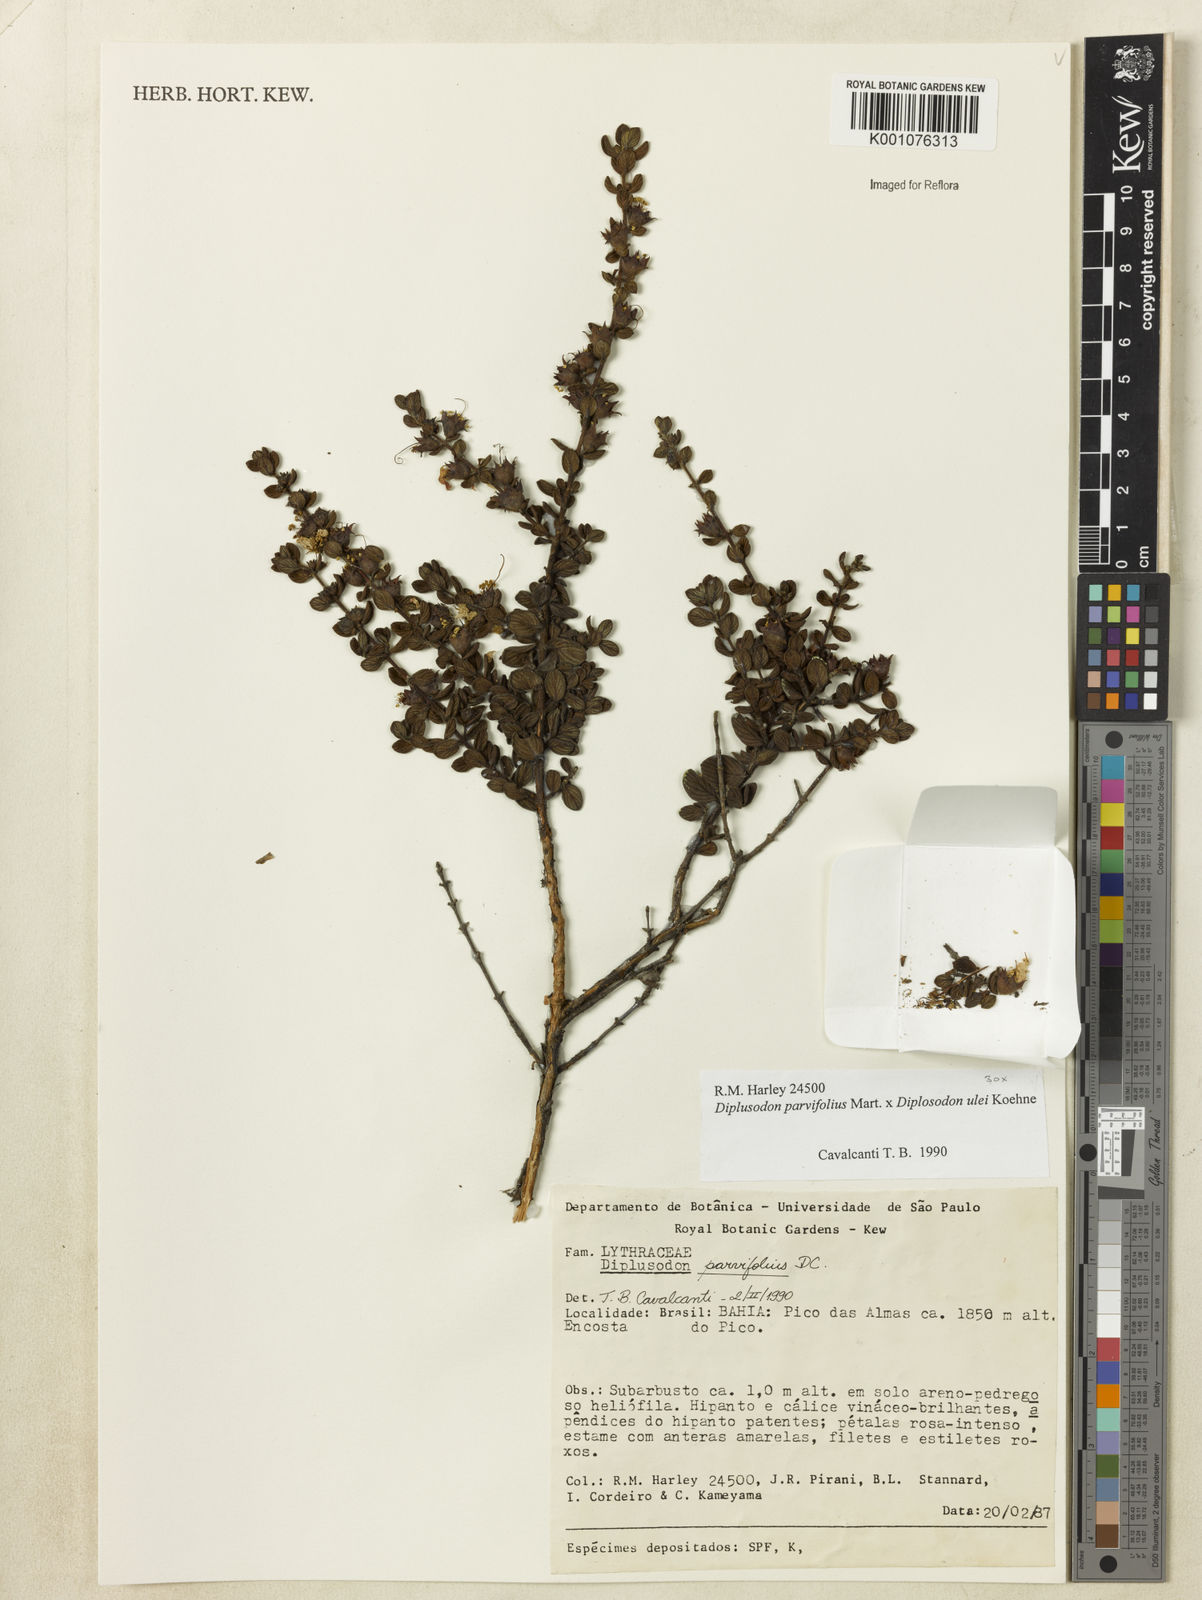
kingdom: Plantae
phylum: Tracheophyta
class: Magnoliopsida
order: Myrtales
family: Lythraceae
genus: Diplusodon
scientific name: Diplusodon parvifolius
